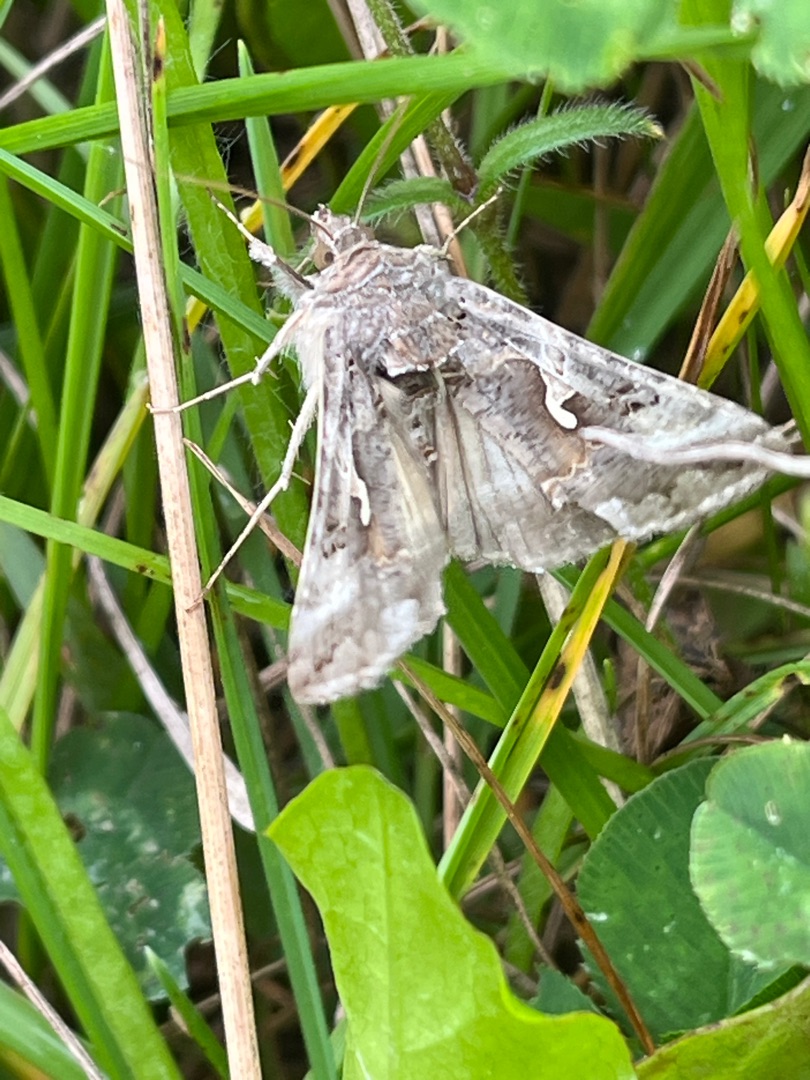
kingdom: Animalia
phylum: Arthropoda
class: Insecta
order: Lepidoptera
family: Noctuidae
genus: Autographa
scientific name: Autographa gamma
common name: Gammaugle
